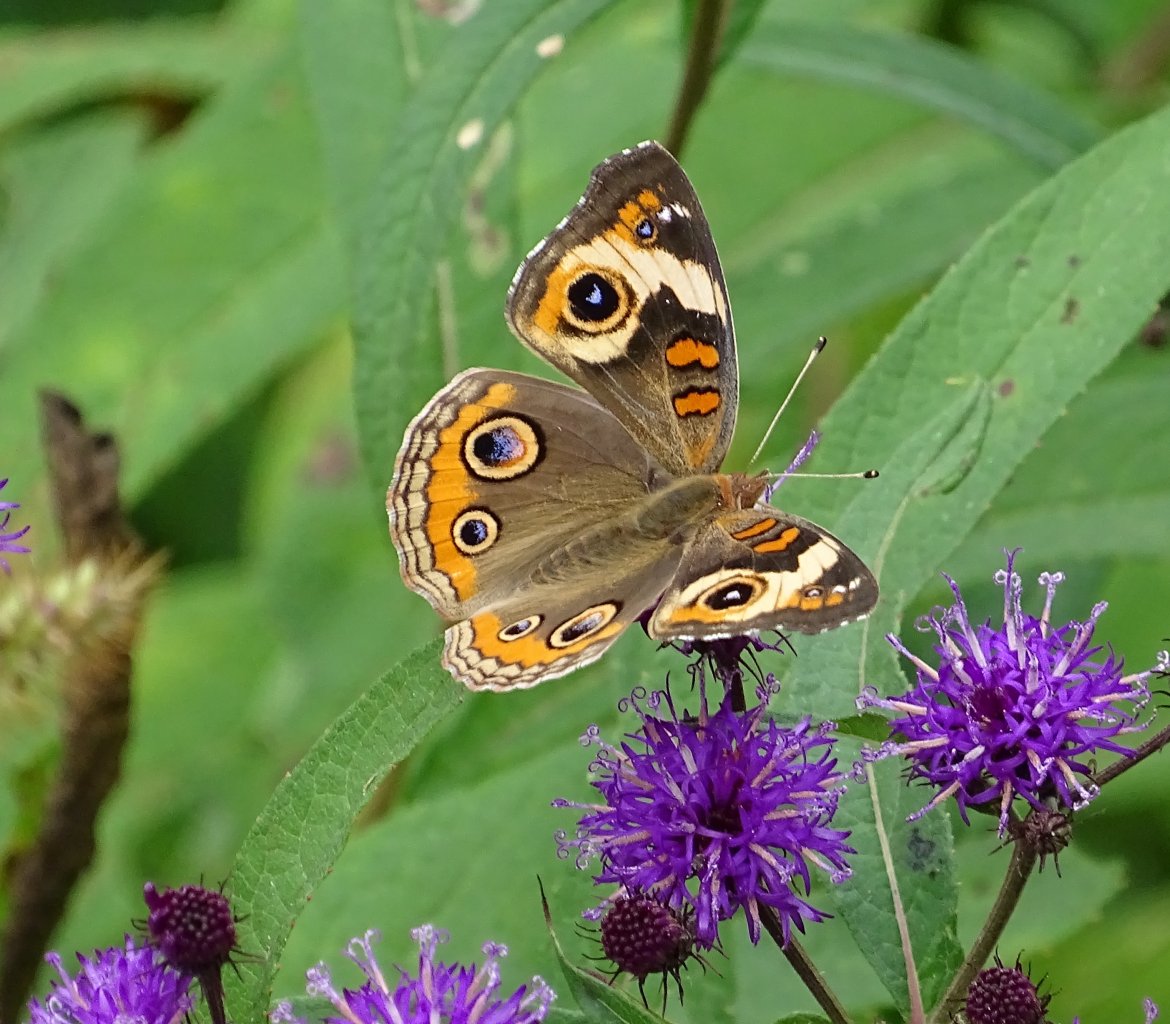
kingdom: Animalia
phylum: Arthropoda
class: Insecta
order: Lepidoptera
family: Nymphalidae
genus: Junonia
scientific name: Junonia coenia
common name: Common Buckeye
